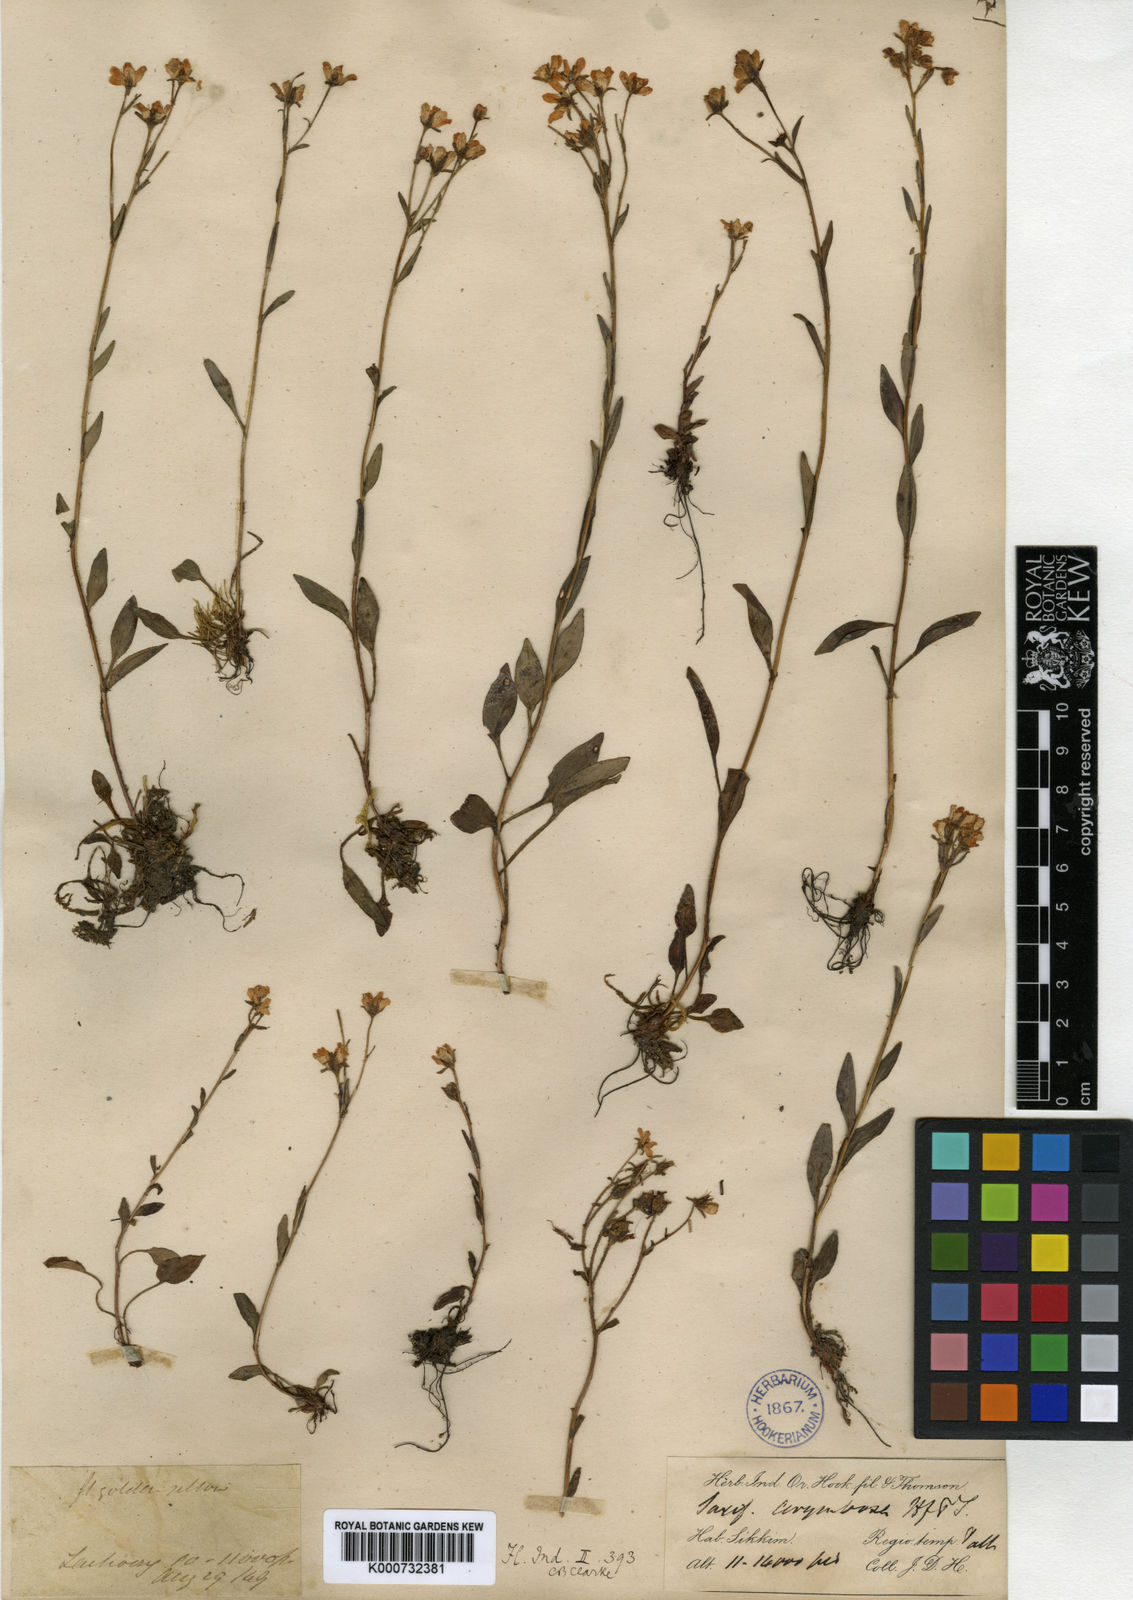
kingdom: Plantae
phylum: Tracheophyta
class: Magnoliopsida
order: Saxifragales
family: Saxifragaceae
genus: Saxifraga
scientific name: Saxifraga granulata
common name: Meadow saxifrage
